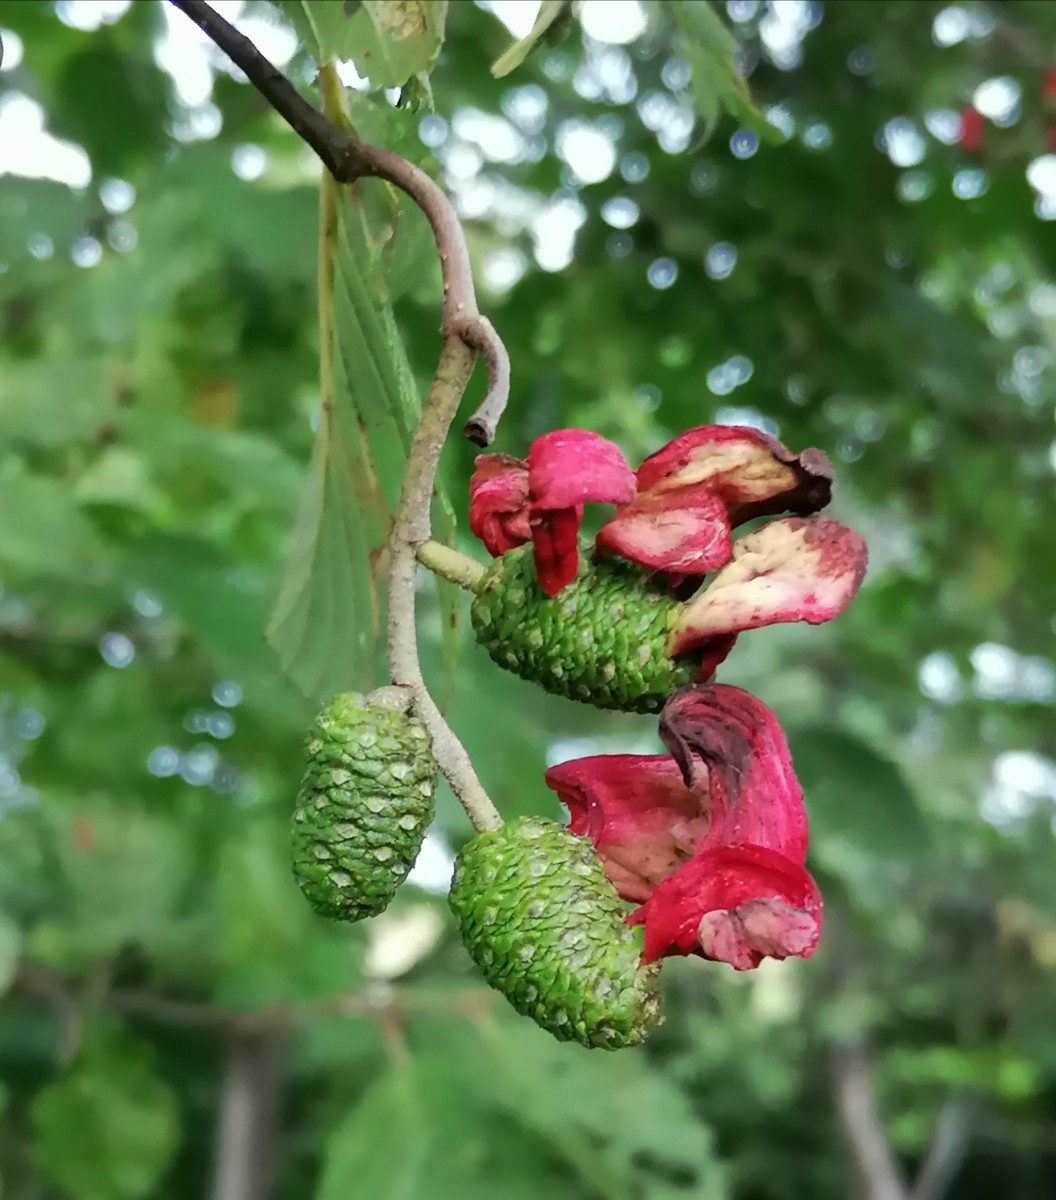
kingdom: Fungi
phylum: Ascomycota
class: Taphrinomycetes
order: Taphrinales
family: Taphrinaceae
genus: Taphrina
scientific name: Taphrina alni
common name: Alder tongue
